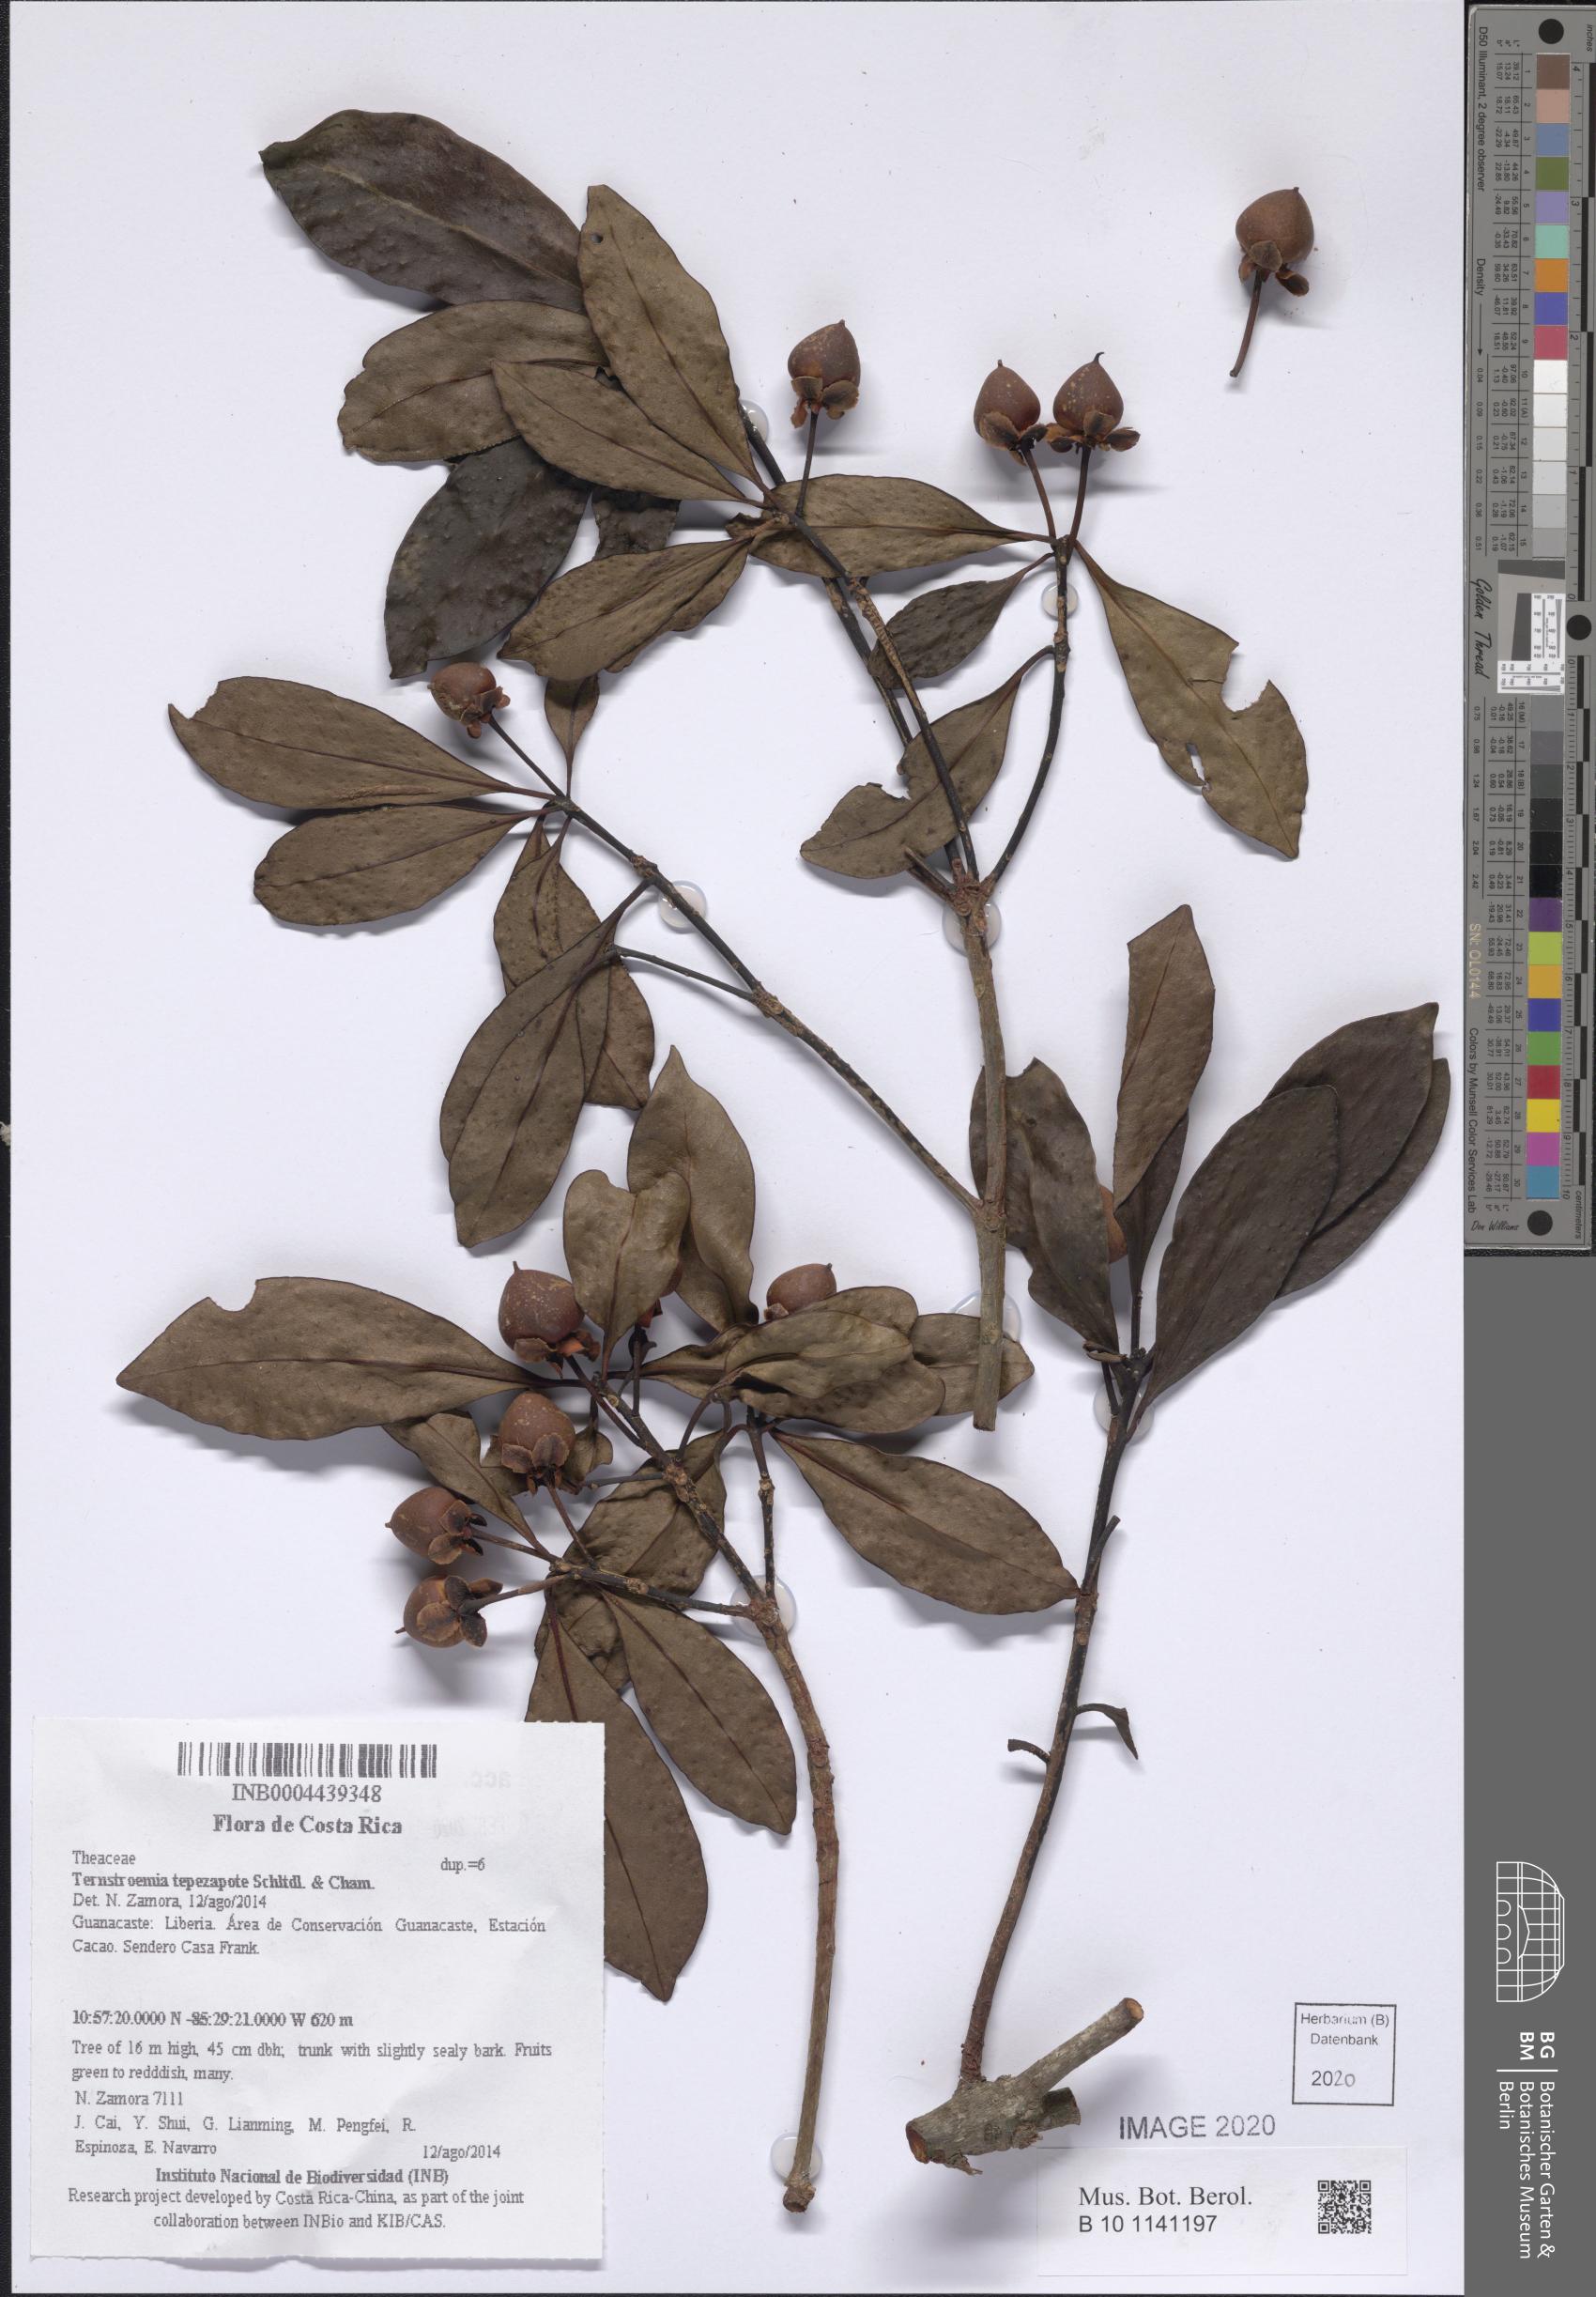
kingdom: Plantae
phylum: Tracheophyta
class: Magnoliopsida
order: Ericales
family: Pentaphylacaceae
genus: Ternstroemia
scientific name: Ternstroemia tepezapote
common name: Copey vera
